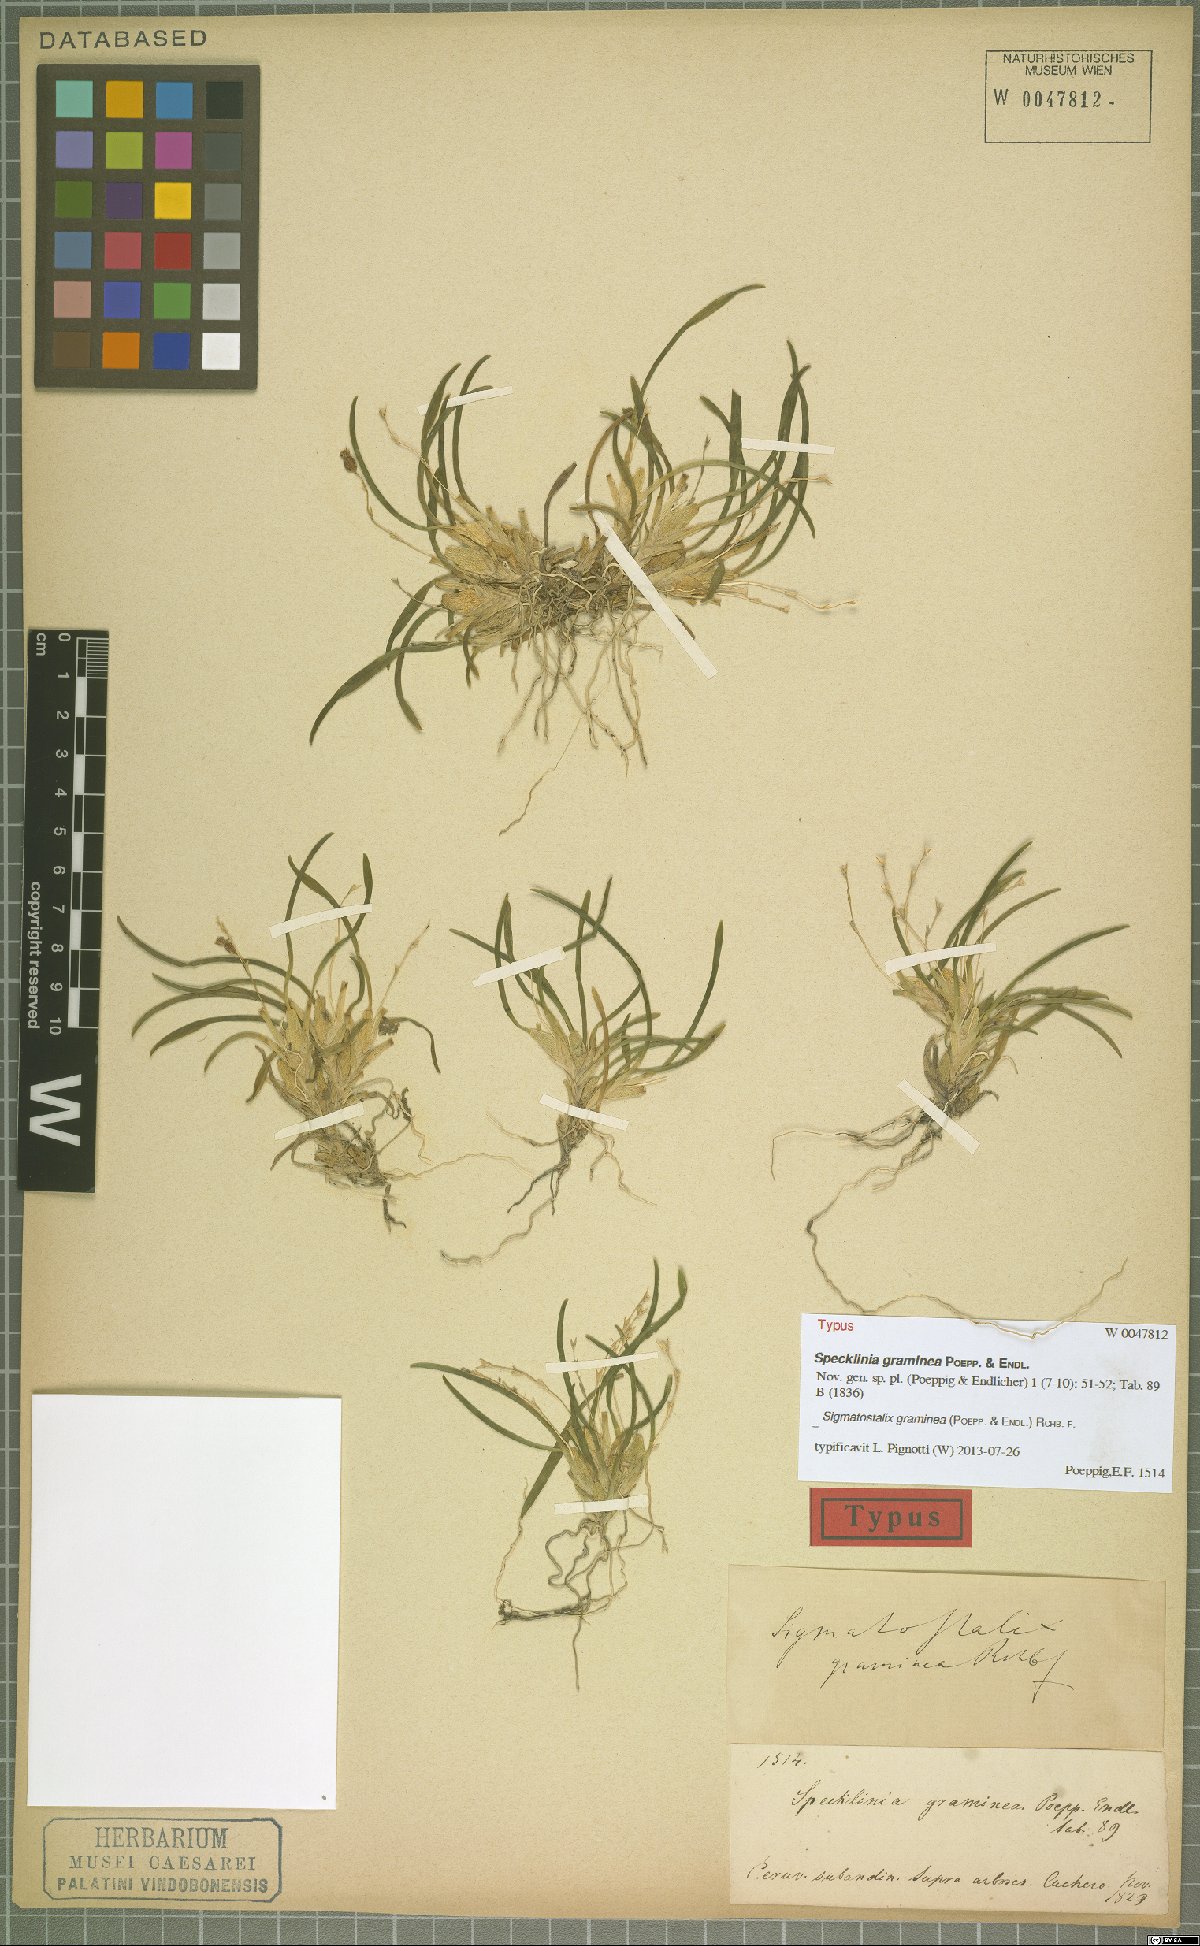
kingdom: Plantae
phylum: Tracheophyta
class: Liliopsida
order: Asparagales
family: Orchidaceae
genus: Oncidium
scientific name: Oncidium gramineum
